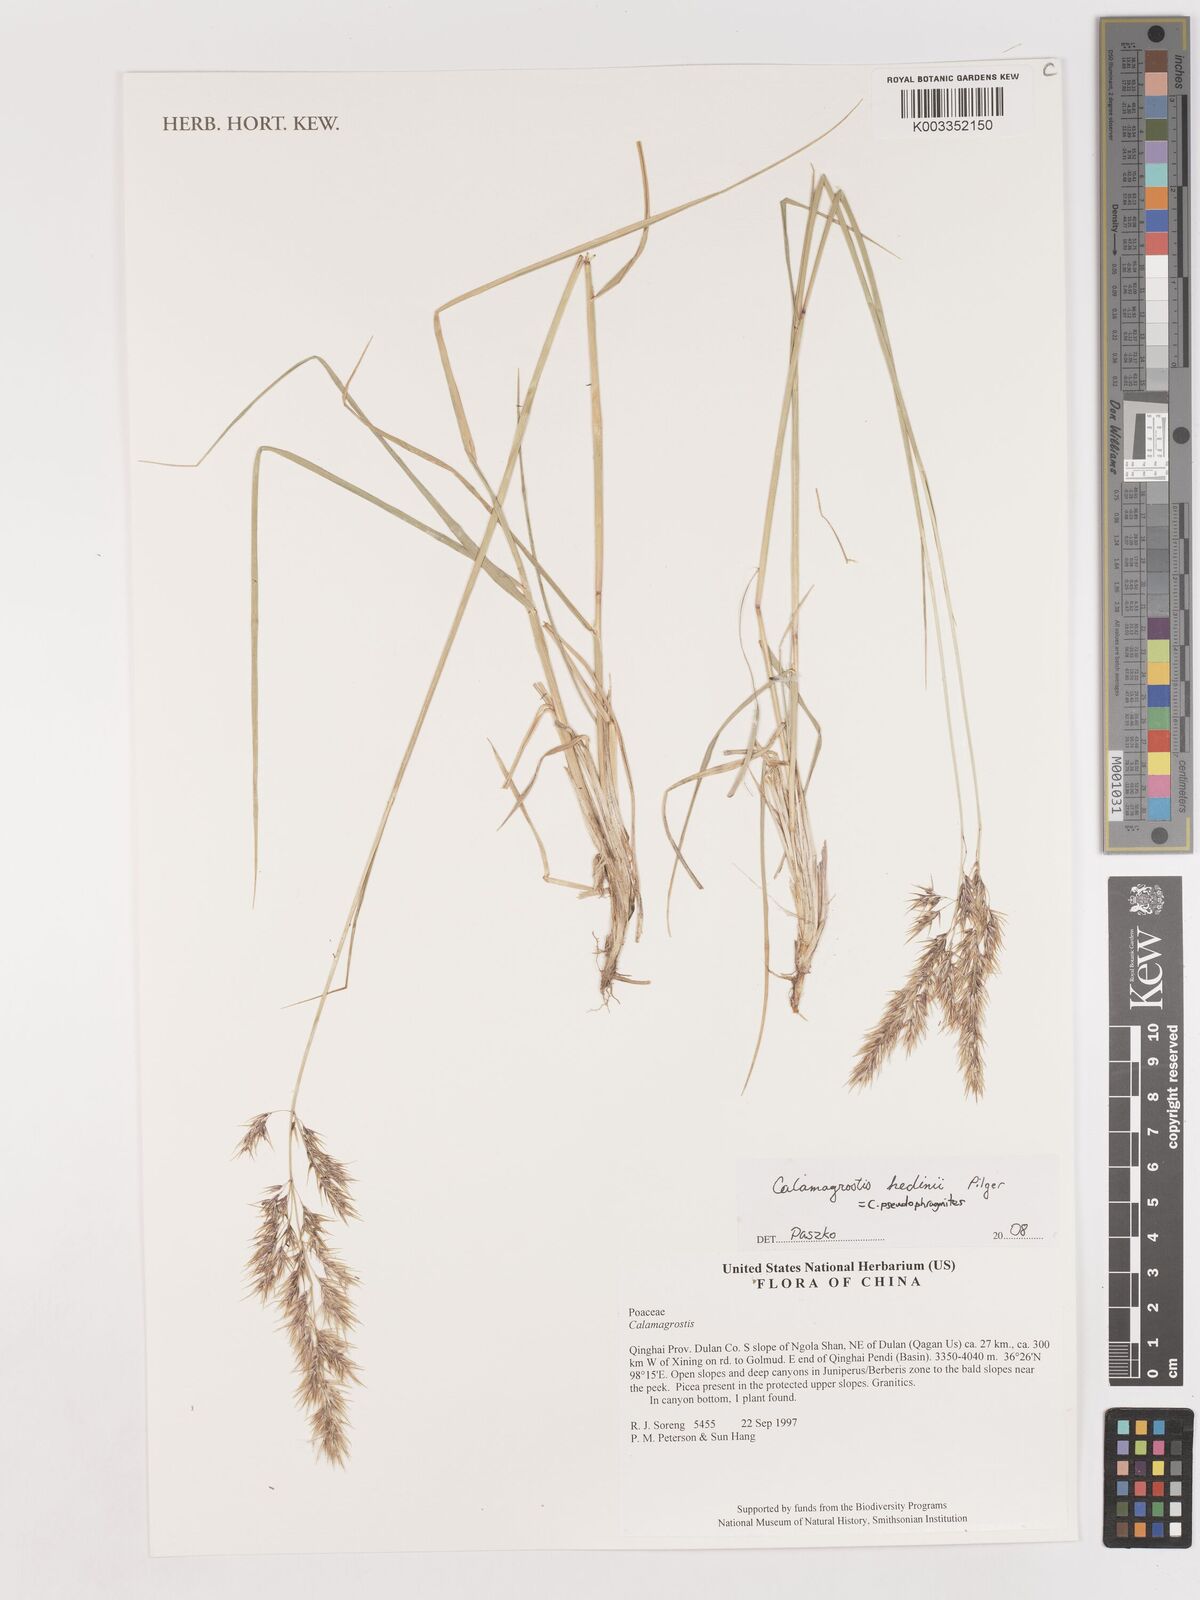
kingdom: Plantae
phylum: Tracheophyta
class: Liliopsida
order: Poales
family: Poaceae
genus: Calamagrostis
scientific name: Calamagrostis pseudophragmites
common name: Coastal small-reed
